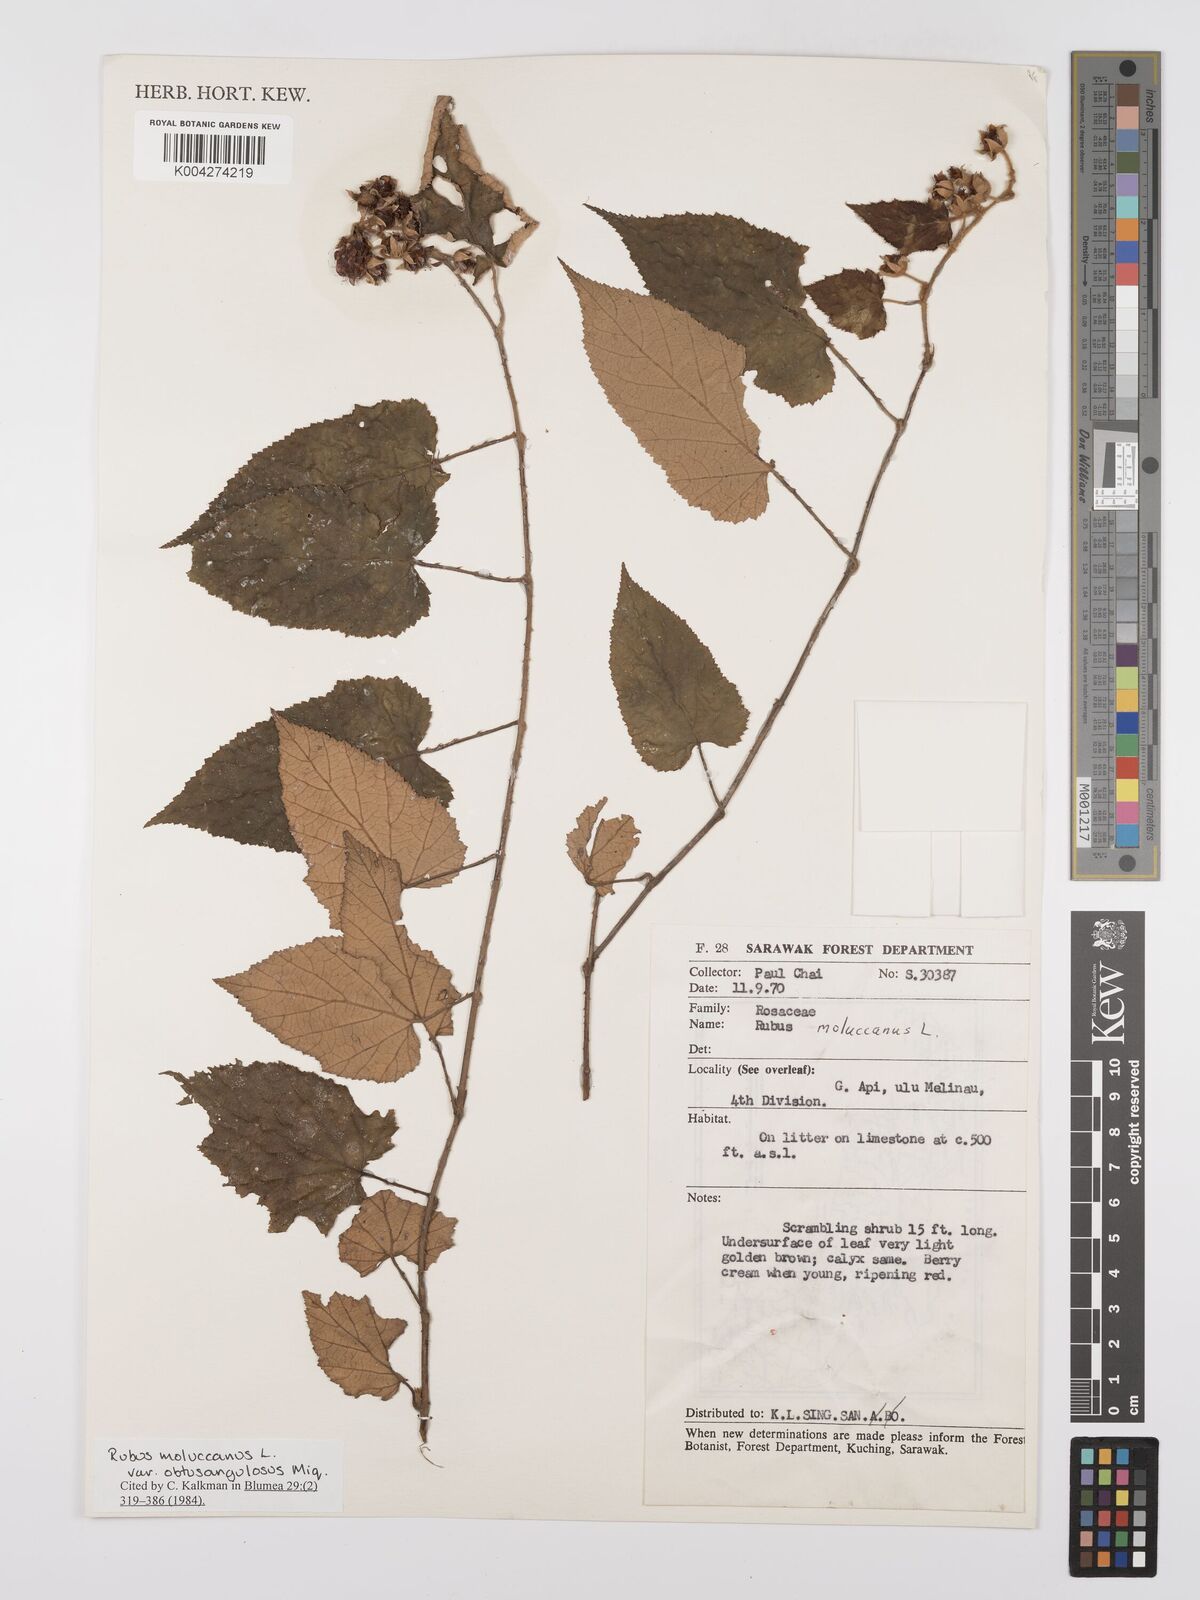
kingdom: Plantae
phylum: Tracheophyta
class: Magnoliopsida
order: Rosales
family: Rosaceae
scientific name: Rosaceae
